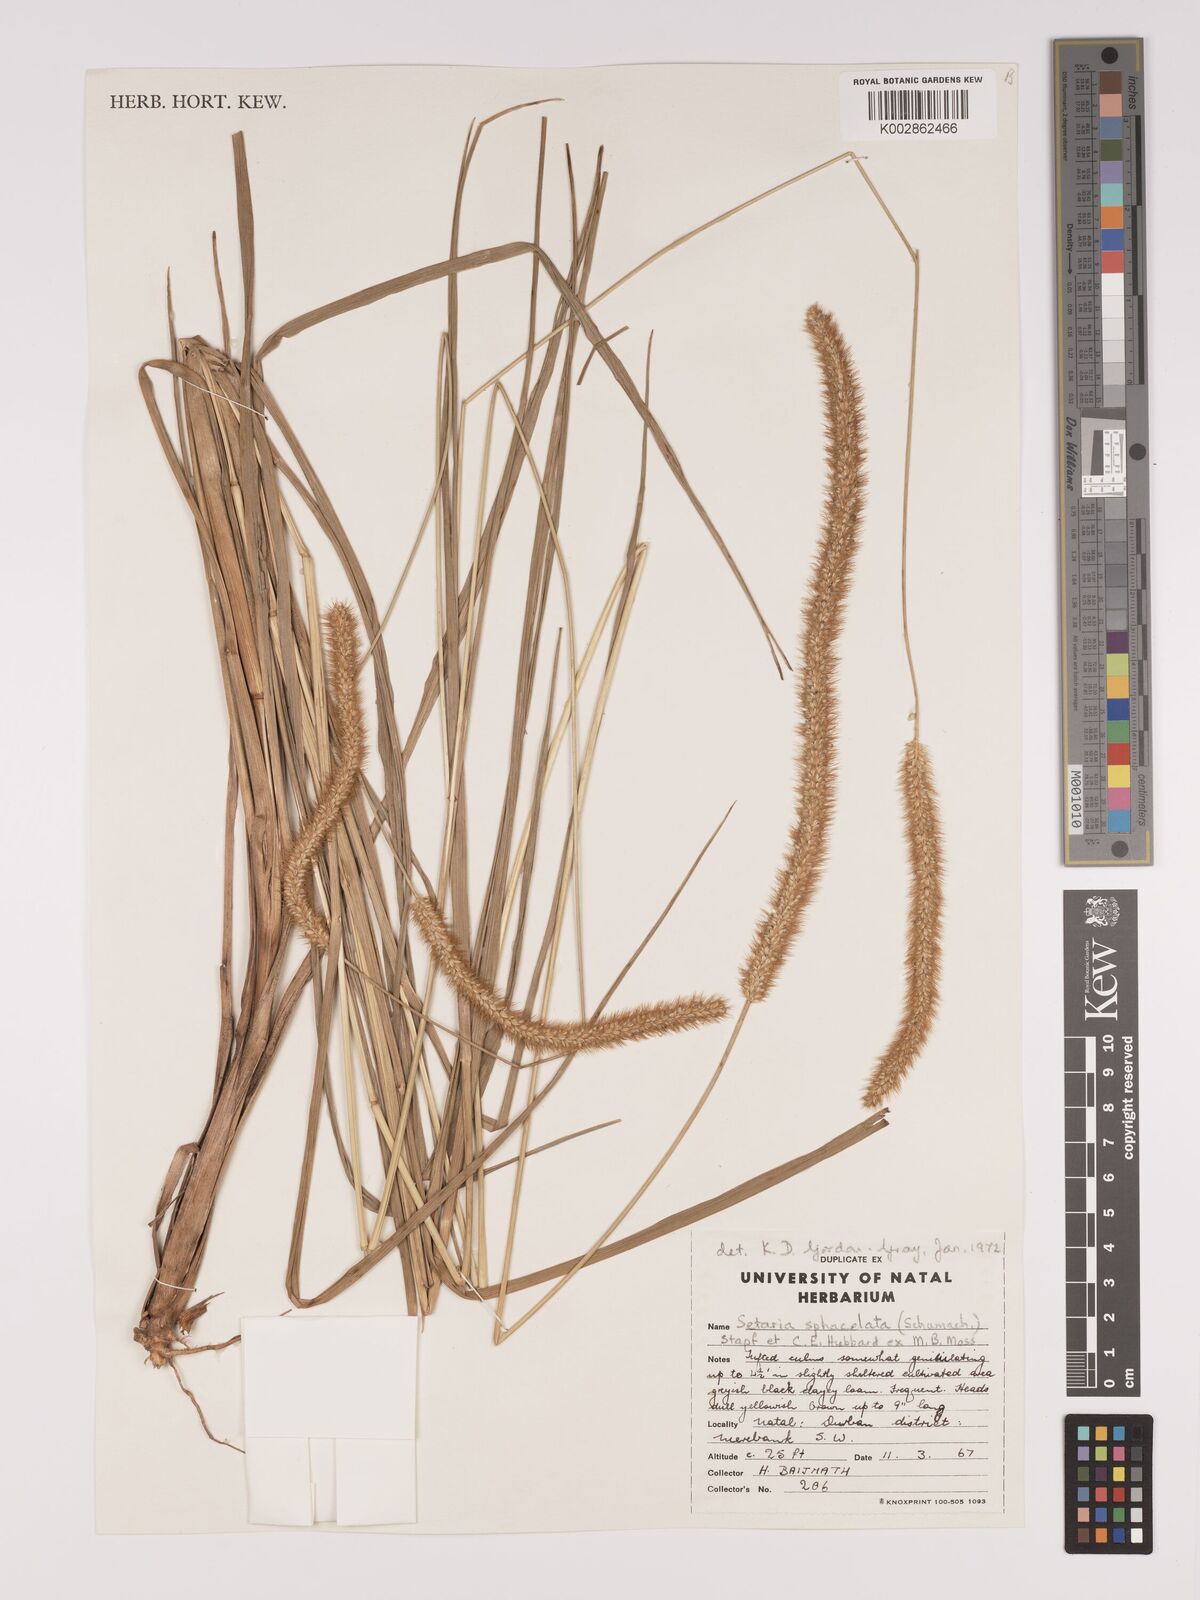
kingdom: Plantae
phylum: Tracheophyta
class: Liliopsida
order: Poales
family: Poaceae
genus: Setaria
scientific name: Setaria sphacelata
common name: African bristlegrass
